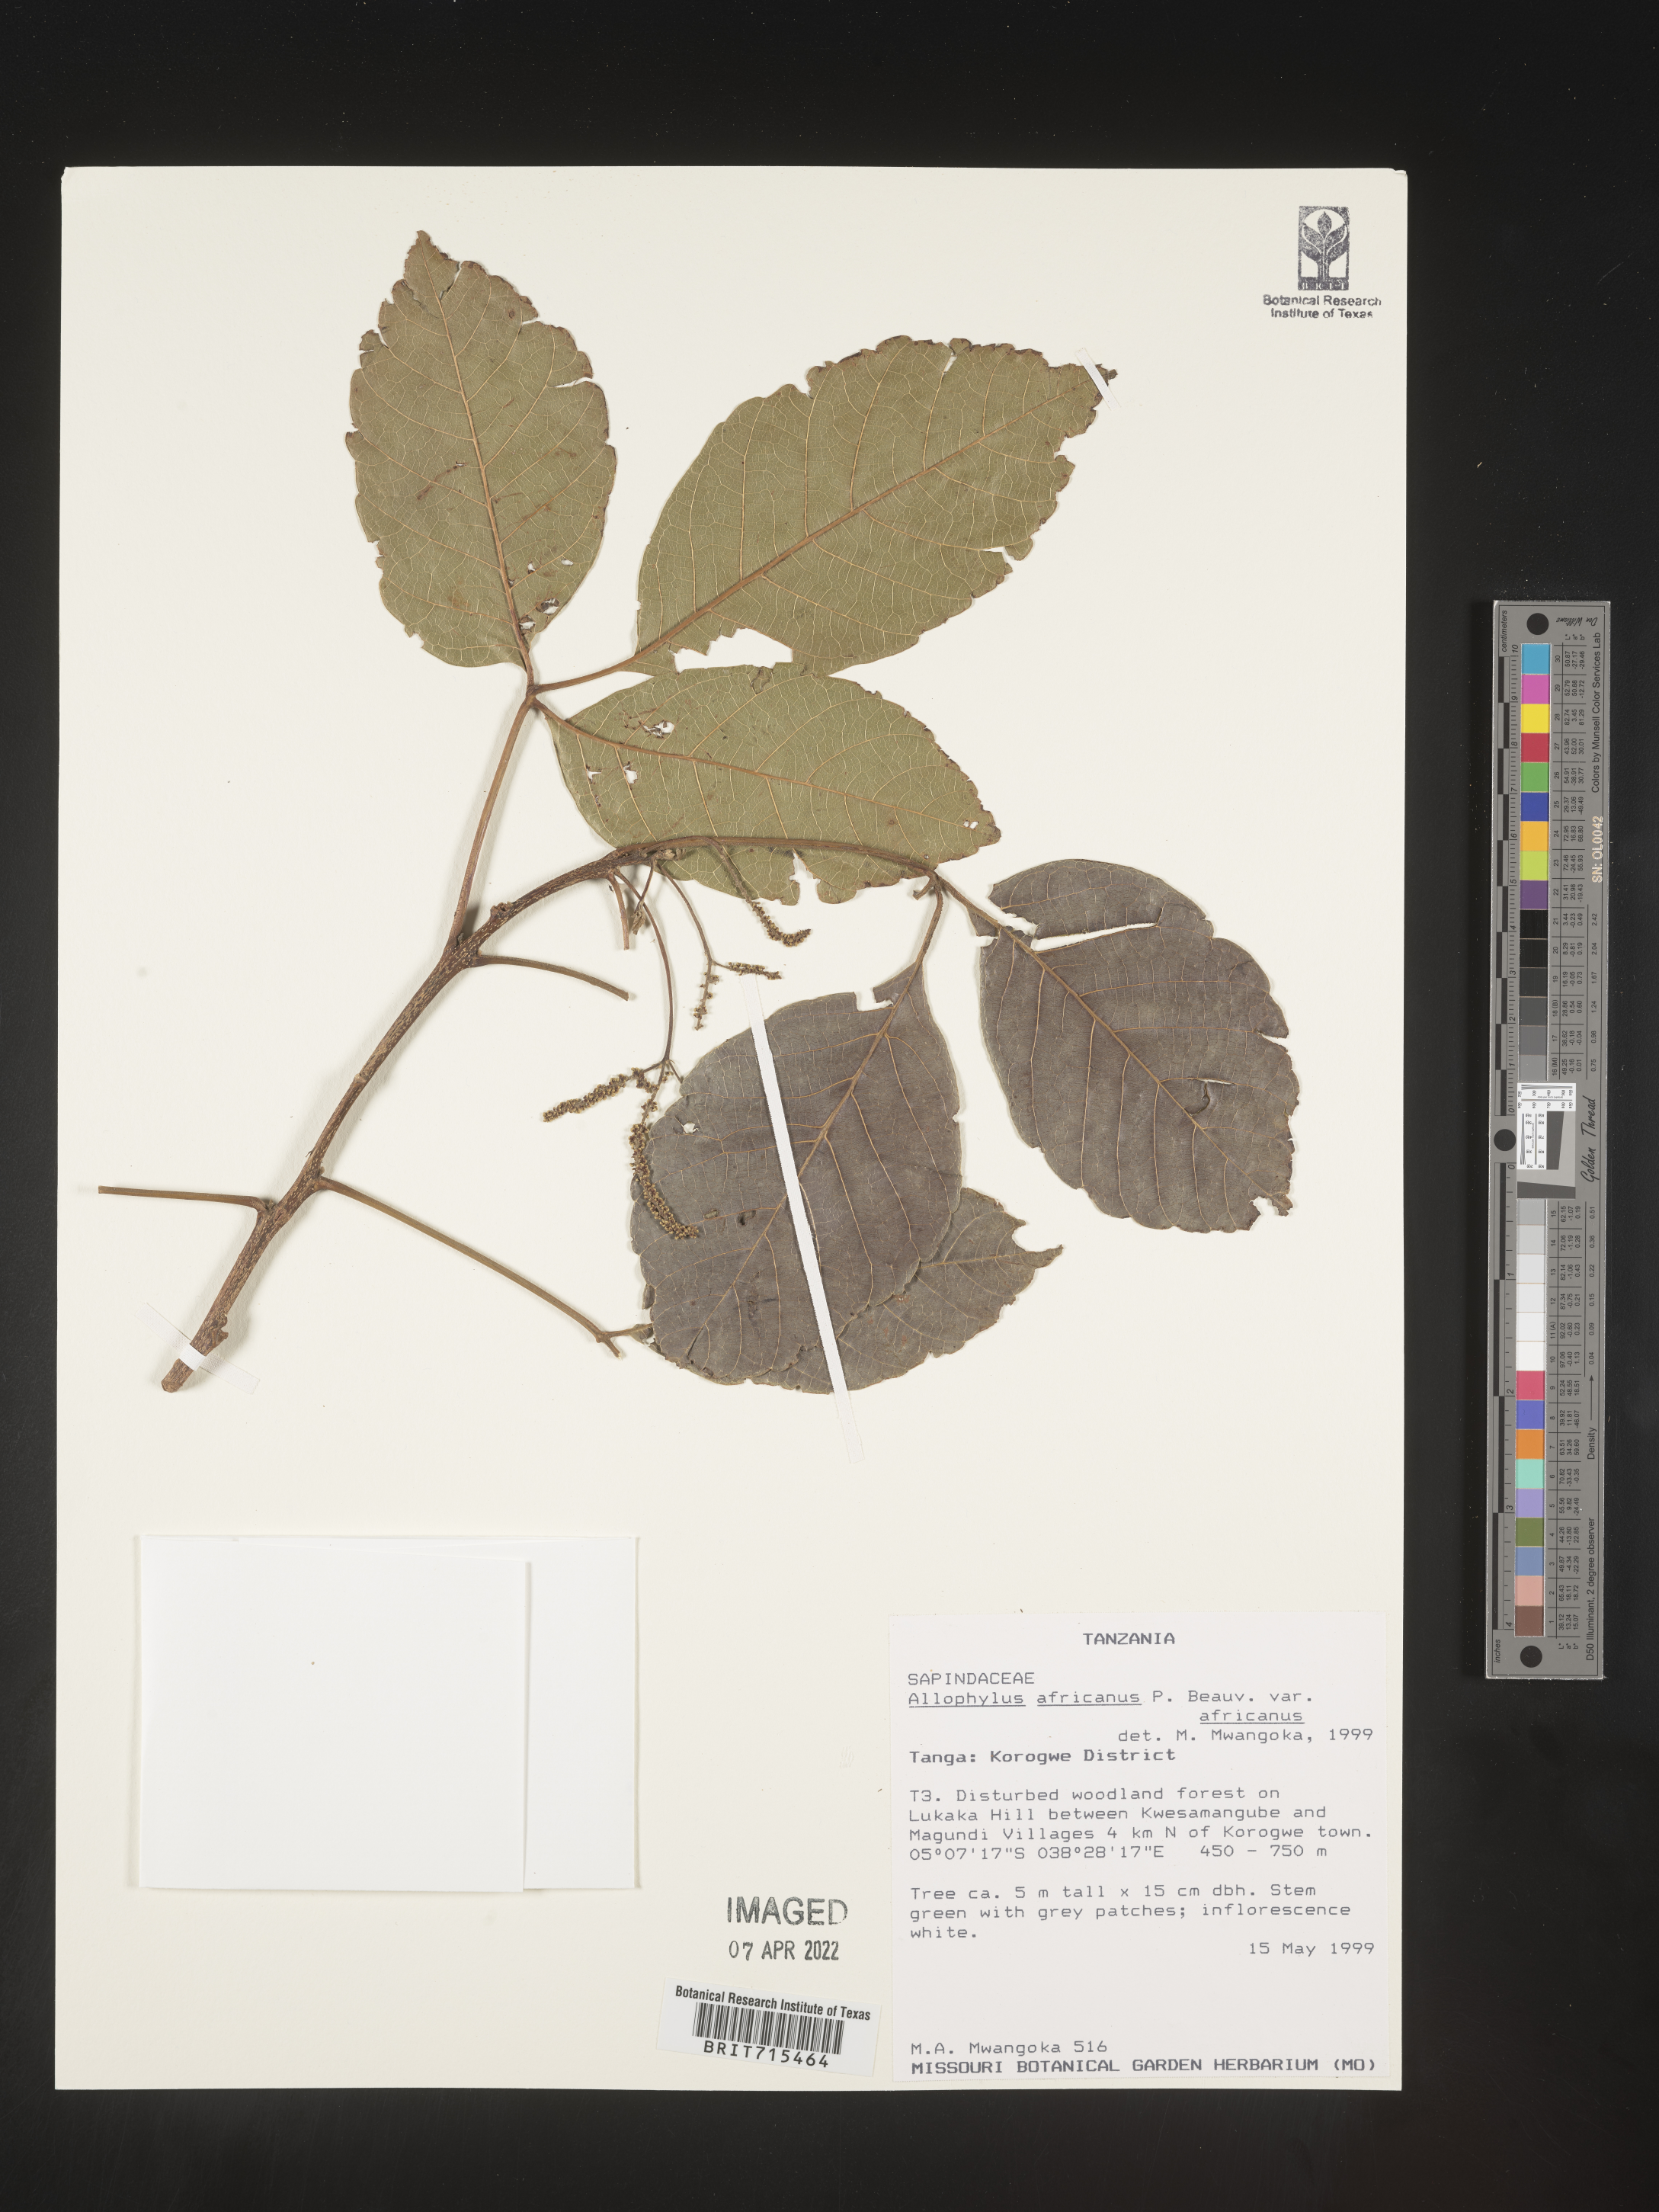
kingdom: Plantae
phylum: Tracheophyta
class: Magnoliopsida
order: Sapindales
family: Sapindaceae
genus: Allophylus
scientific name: Allophylus africanus
